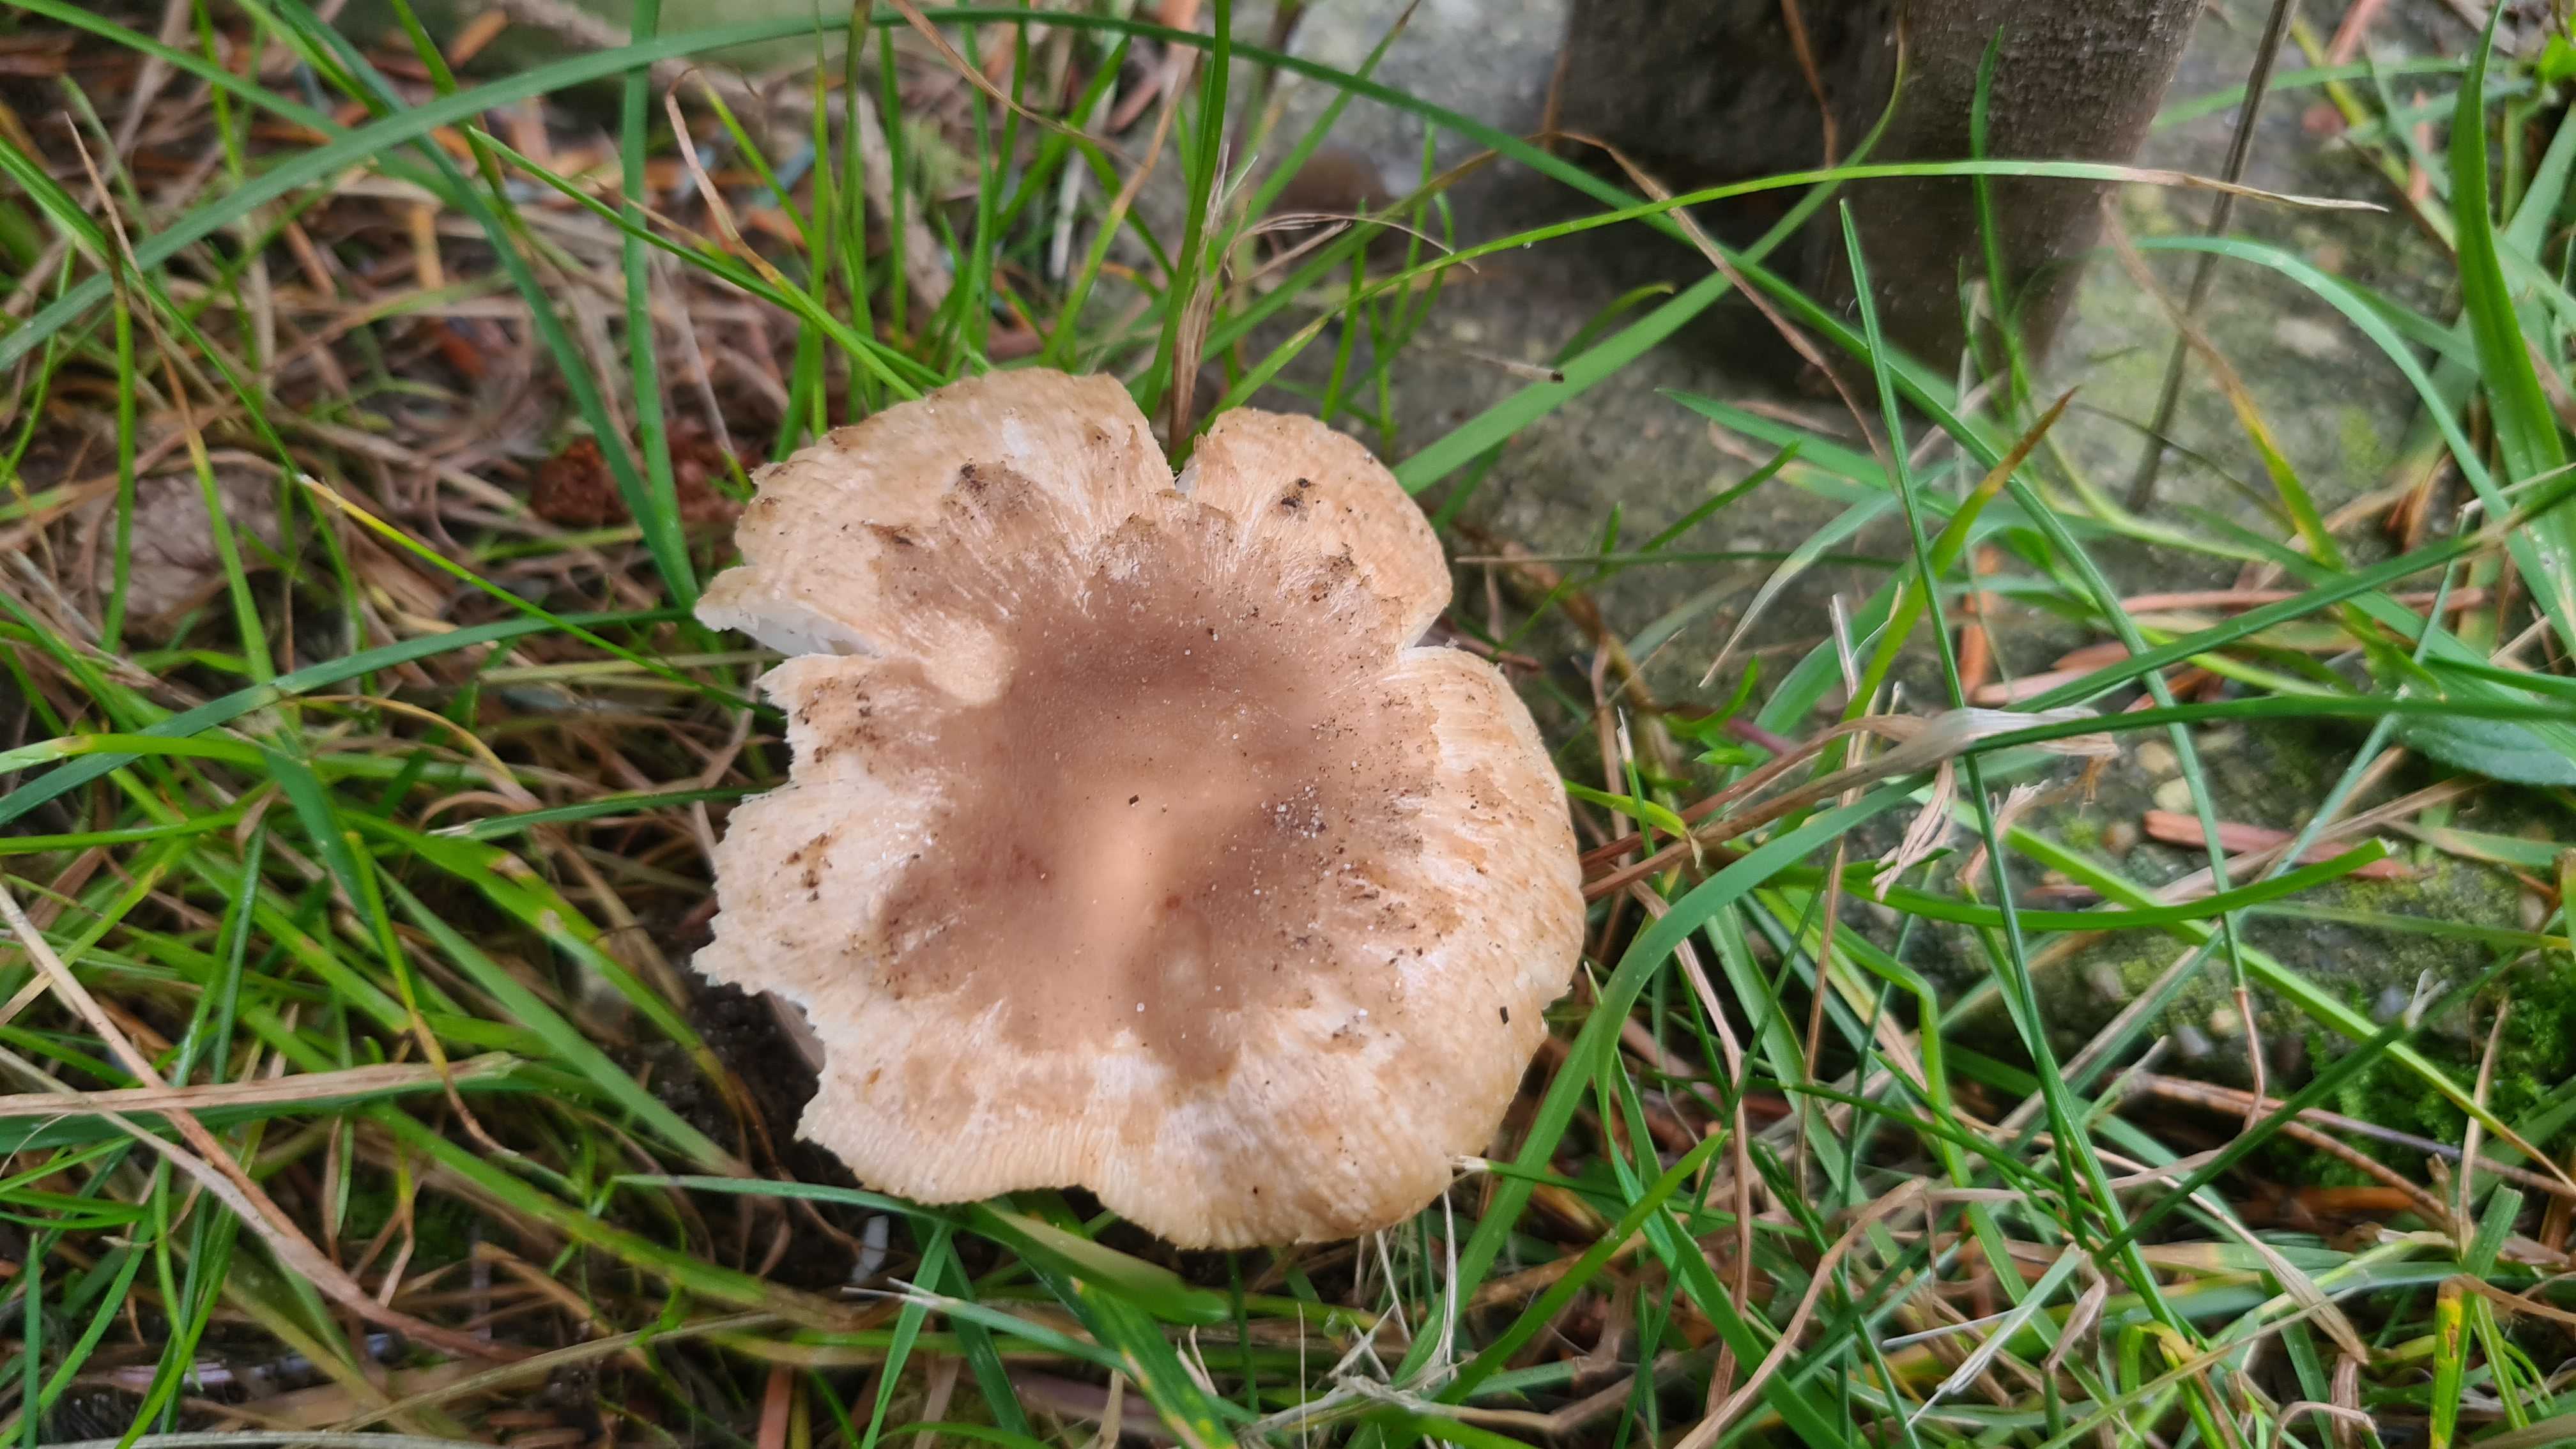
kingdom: Fungi
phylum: Basidiomycota
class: Agaricomycetes
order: Russulales
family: Russulaceae
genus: Russula
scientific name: Russula recondita
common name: mild kam-skørhat
